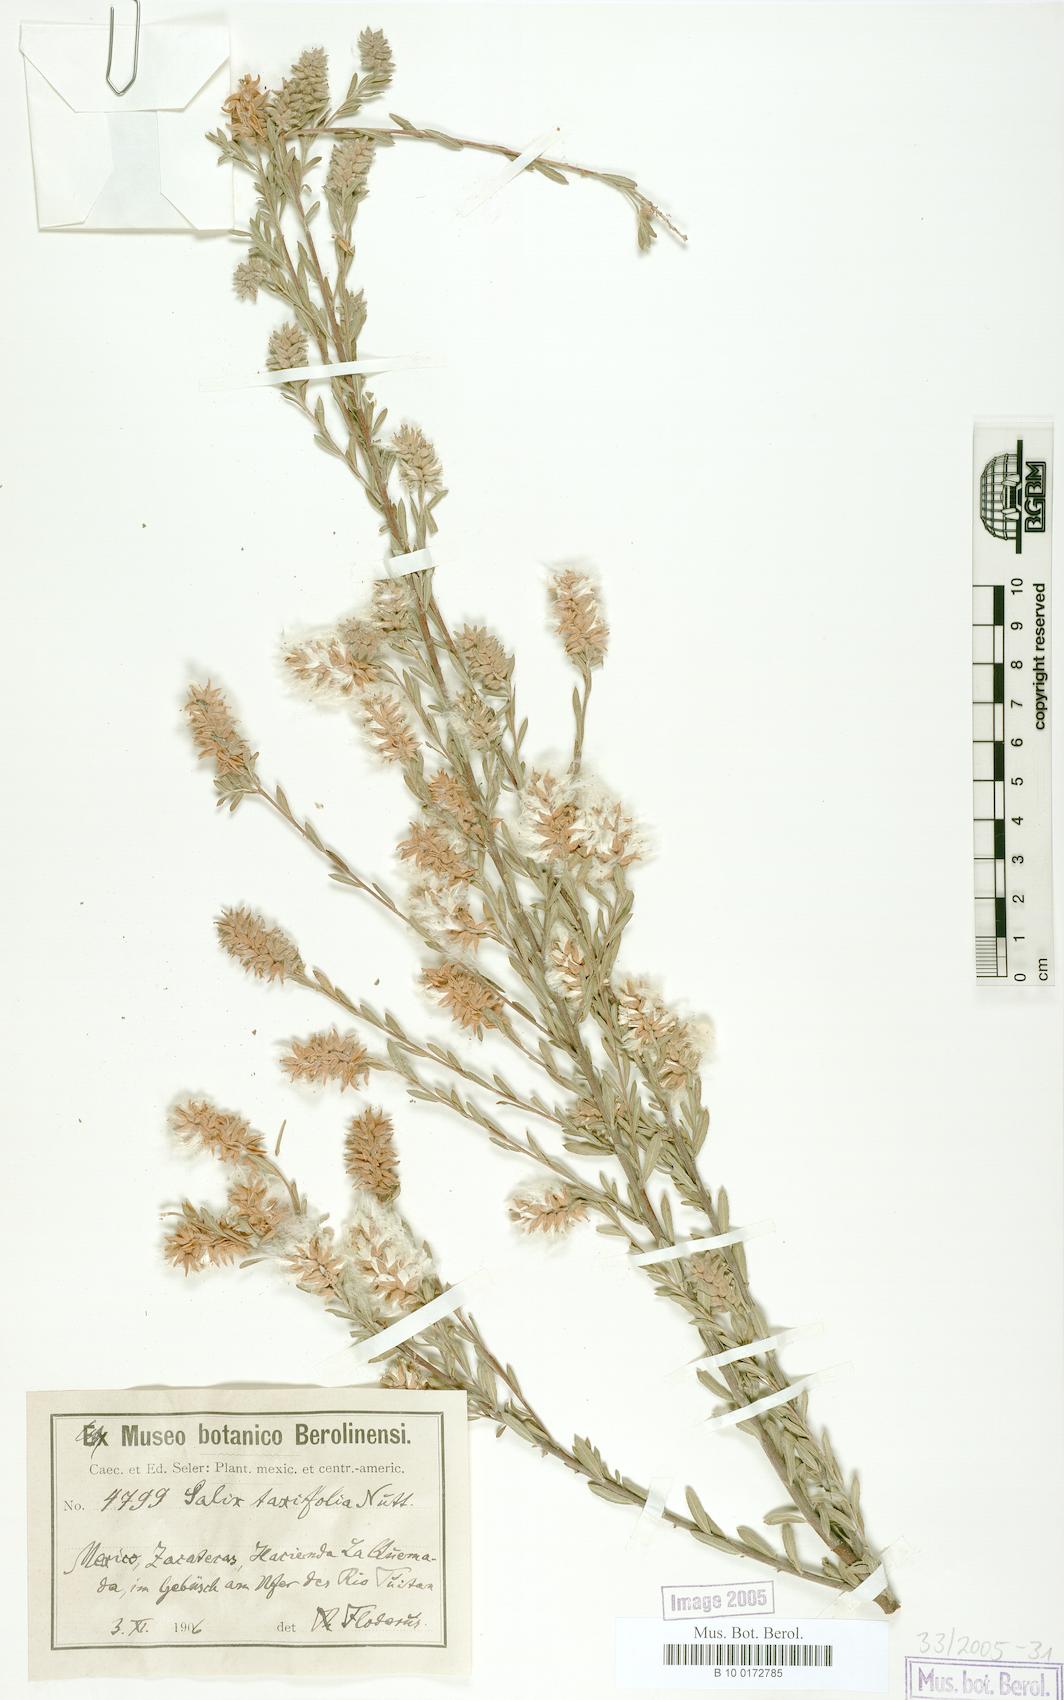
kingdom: Plantae
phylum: Tracheophyta
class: Magnoliopsida
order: Malpighiales
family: Salicaceae
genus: Salix
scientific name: Salix taxifolia
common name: Yew-leaf willow
